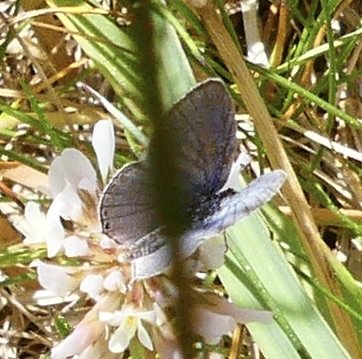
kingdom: Animalia
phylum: Arthropoda
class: Insecta
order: Lepidoptera
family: Lycaenidae
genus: Elkalyce
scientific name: Elkalyce comyntas
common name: Eastern Tailed-Blue
